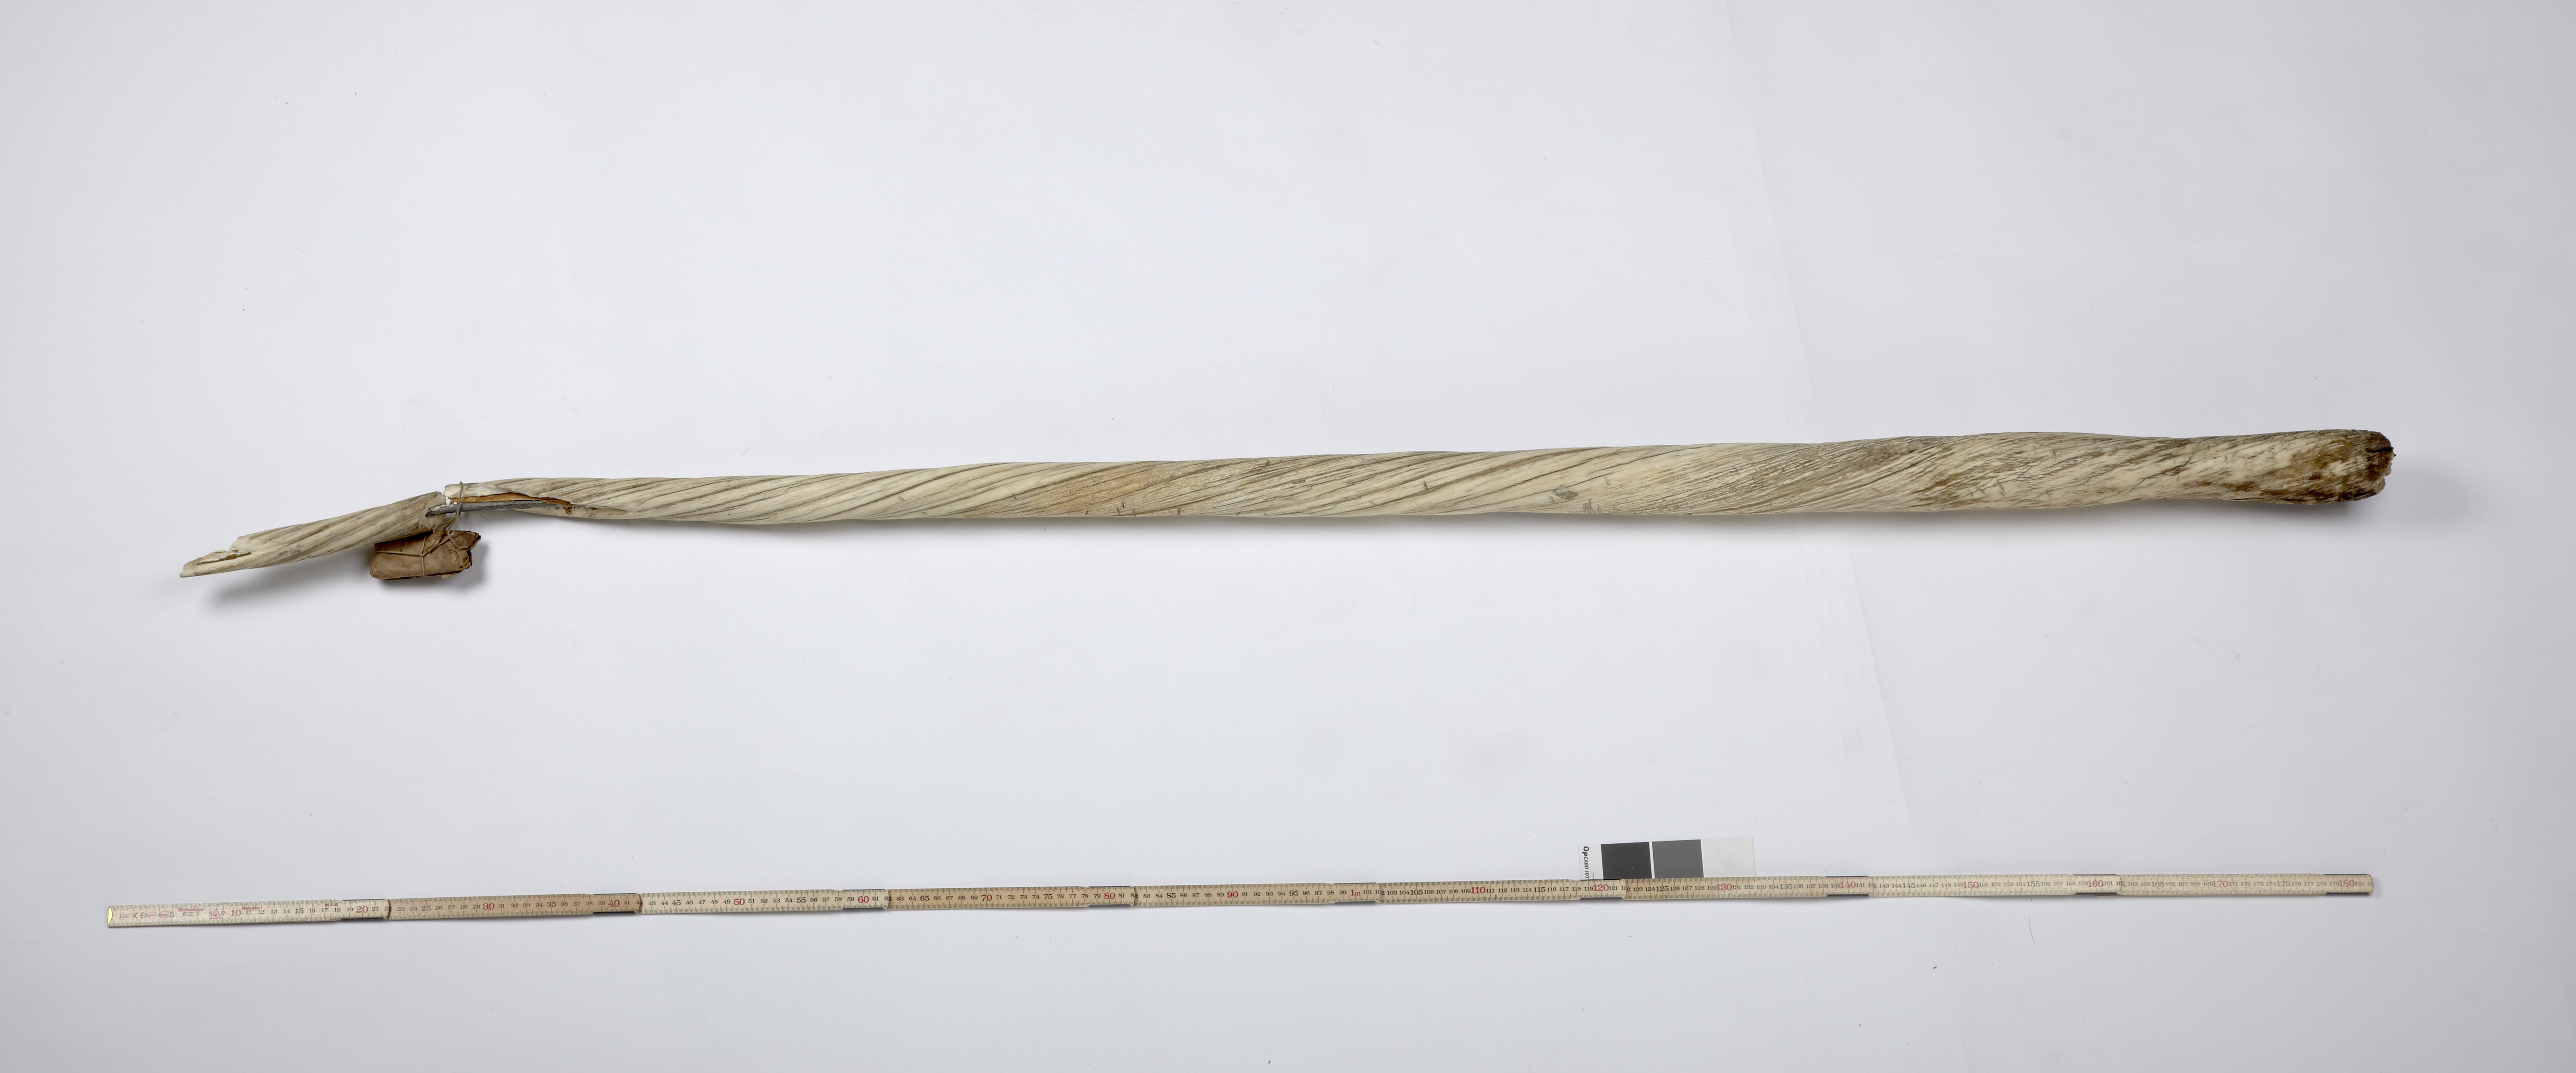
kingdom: Animalia
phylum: Chordata
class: Mammalia
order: Cetacea
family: Monodontidae
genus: Monodon
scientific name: Monodon monoceros
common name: Narwhal
